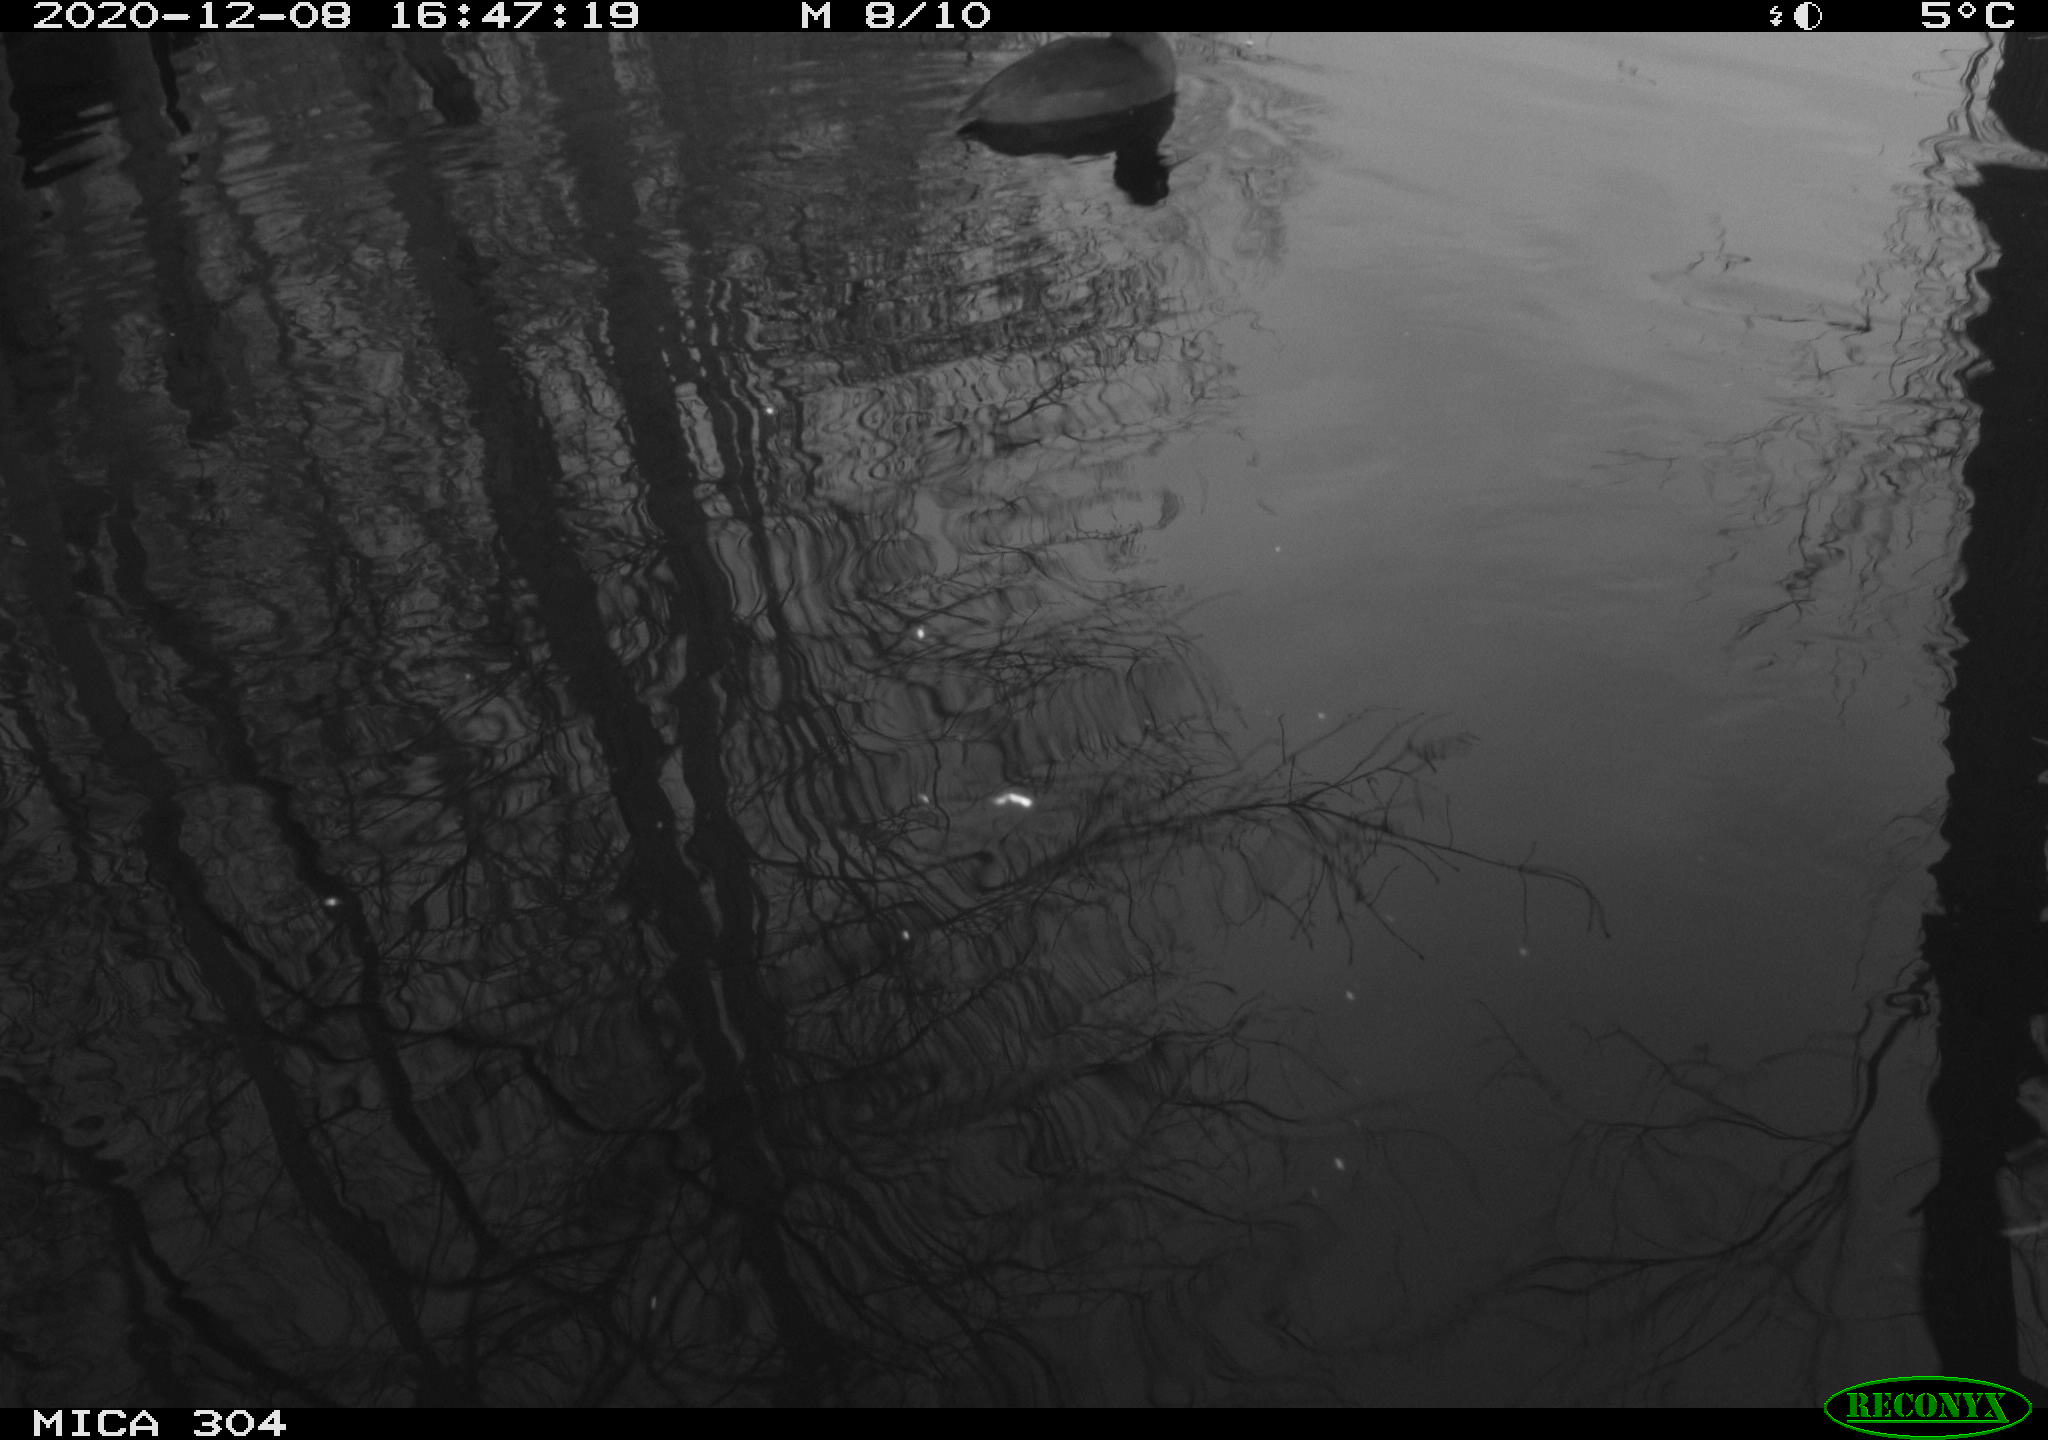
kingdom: Animalia
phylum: Chordata
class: Aves
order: Gruiformes
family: Rallidae
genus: Fulica
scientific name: Fulica atra
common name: Eurasian coot
